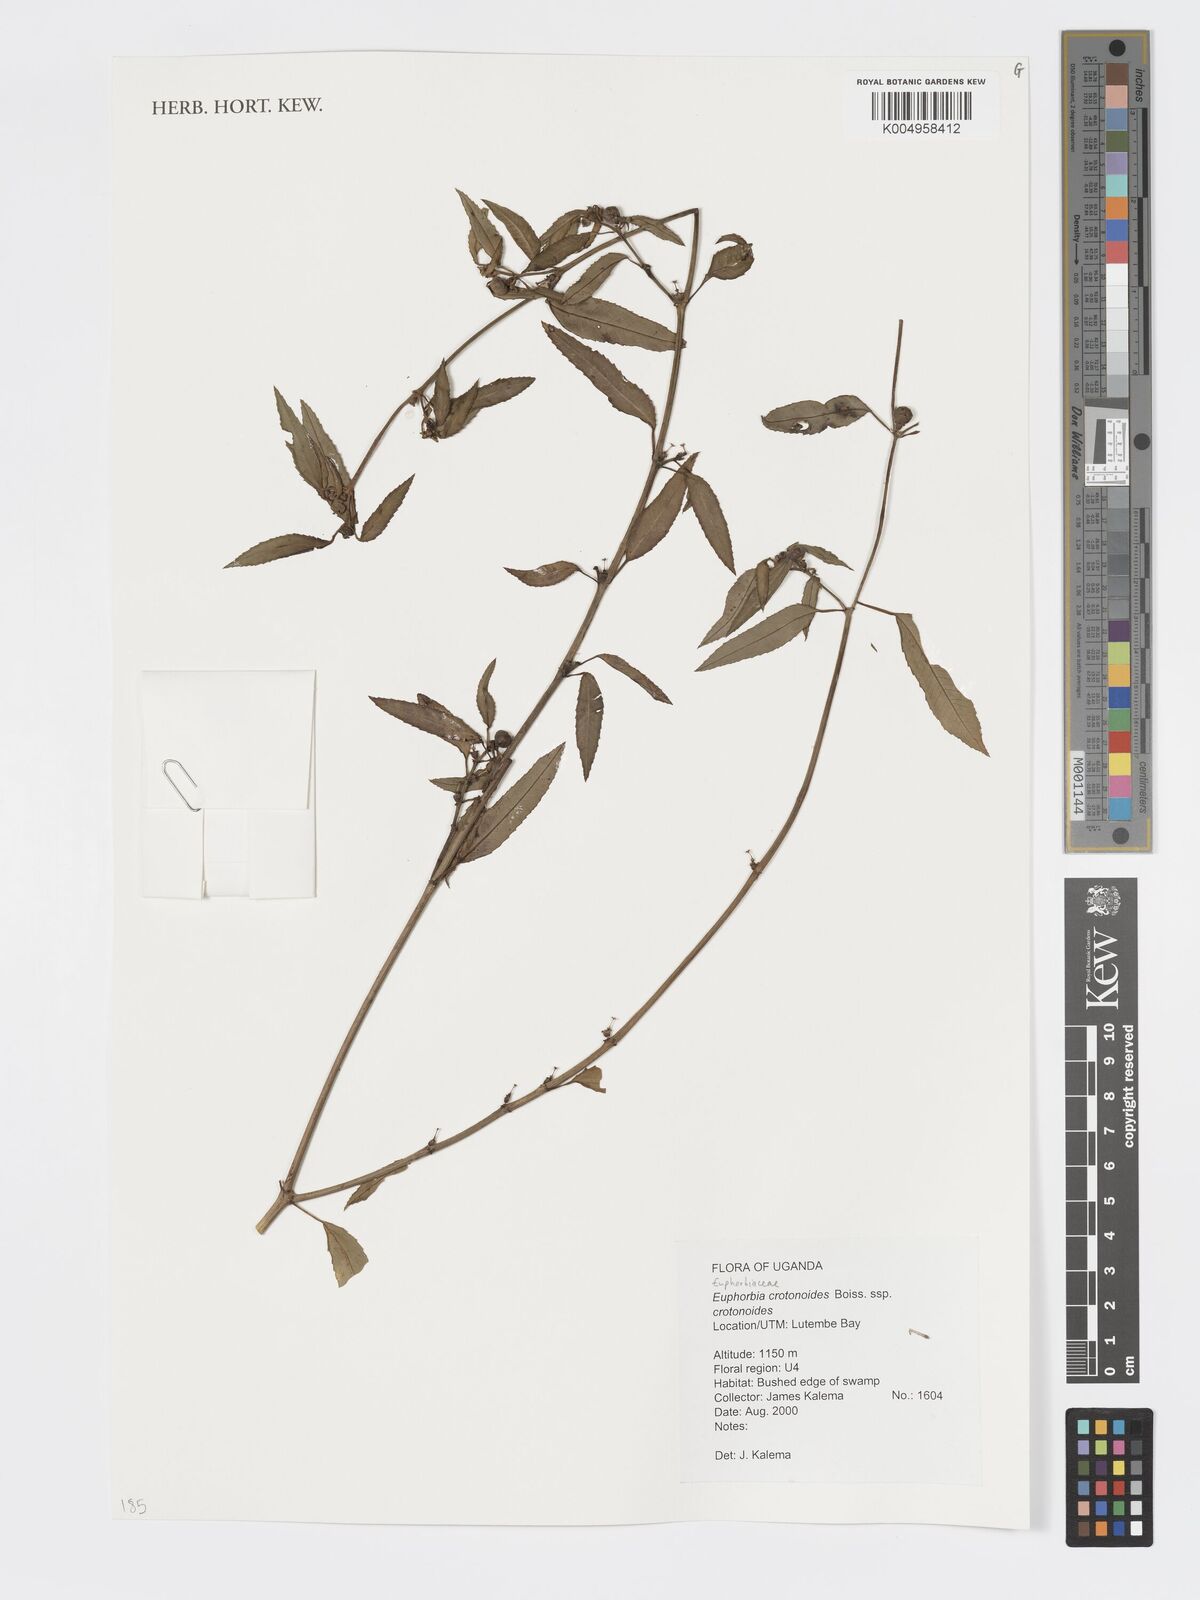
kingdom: Plantae
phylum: Tracheophyta
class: Magnoliopsida
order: Malpighiales
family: Euphorbiaceae
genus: Euphorbia
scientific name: Euphorbia crotonoides
